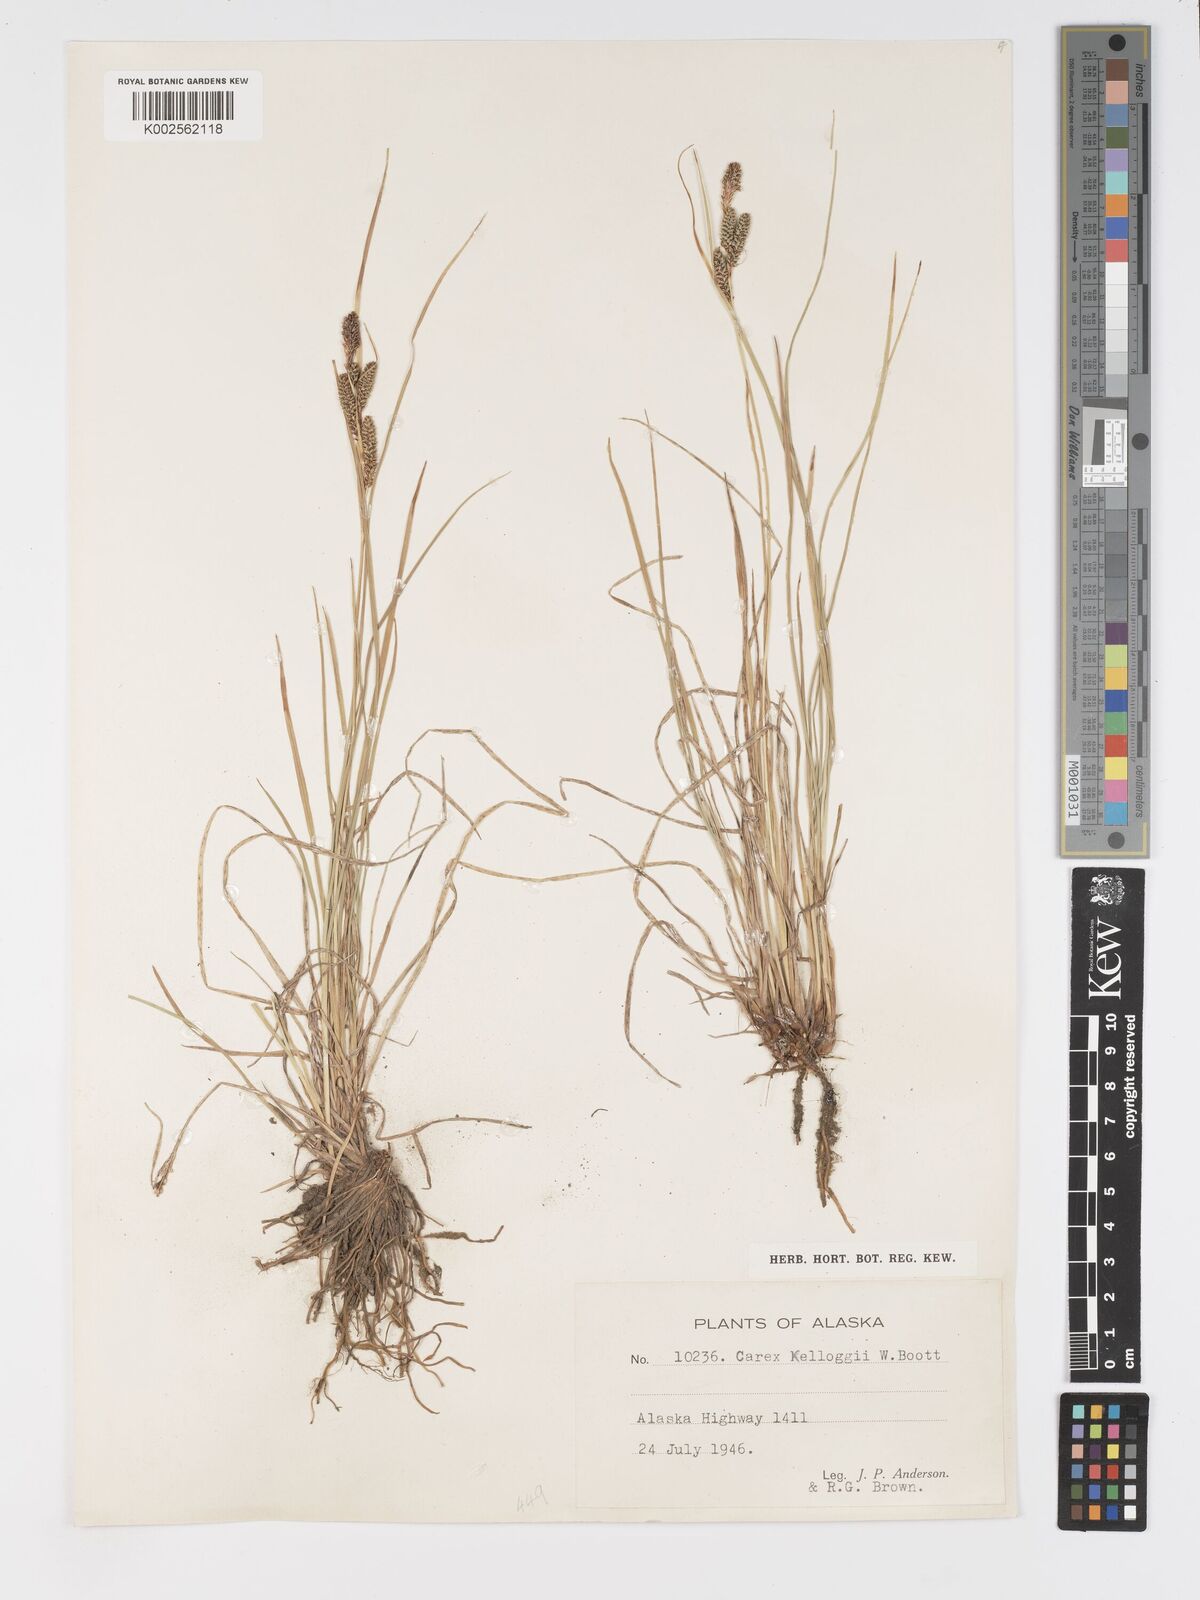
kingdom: Plantae
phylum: Tracheophyta
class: Liliopsida
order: Poales
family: Cyperaceae
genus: Carex
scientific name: Carex kelloggii
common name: Kellogg's sedge
